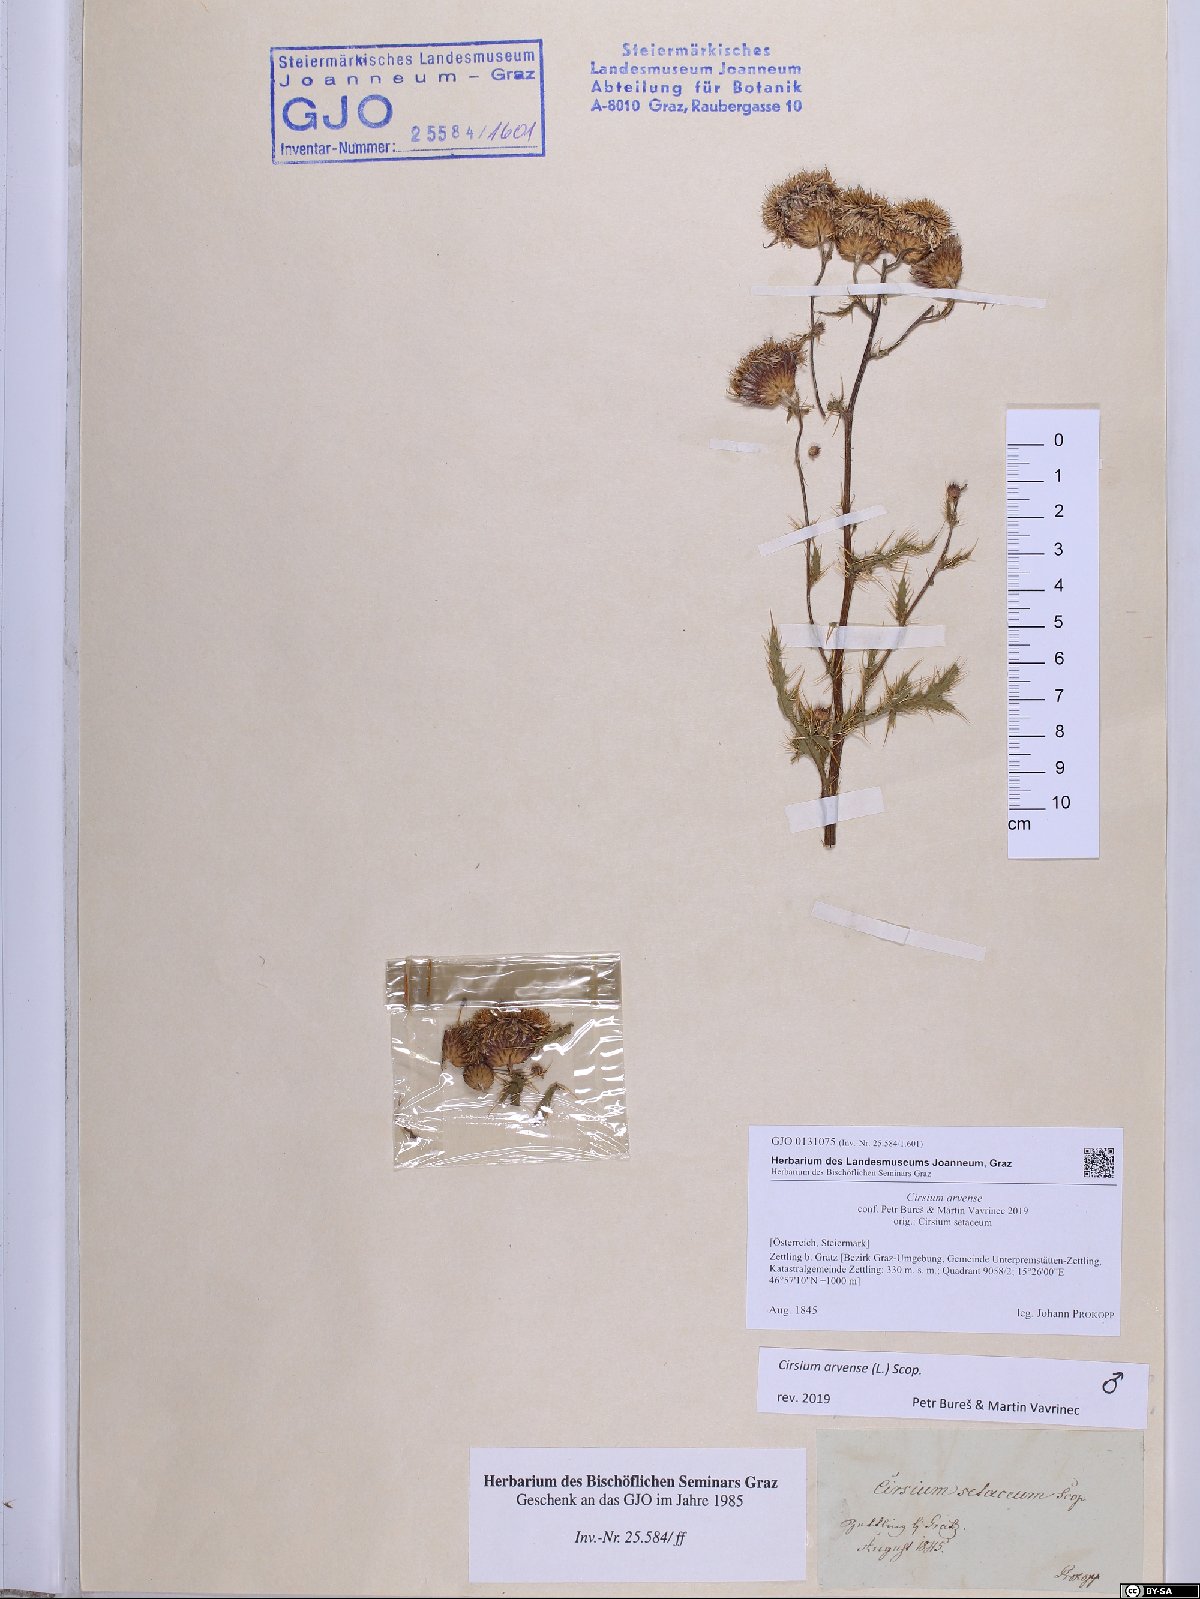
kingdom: Plantae
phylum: Tracheophyta
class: Magnoliopsida
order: Asterales
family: Asteraceae
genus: Cirsium
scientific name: Cirsium arvense
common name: Creeping thistle
